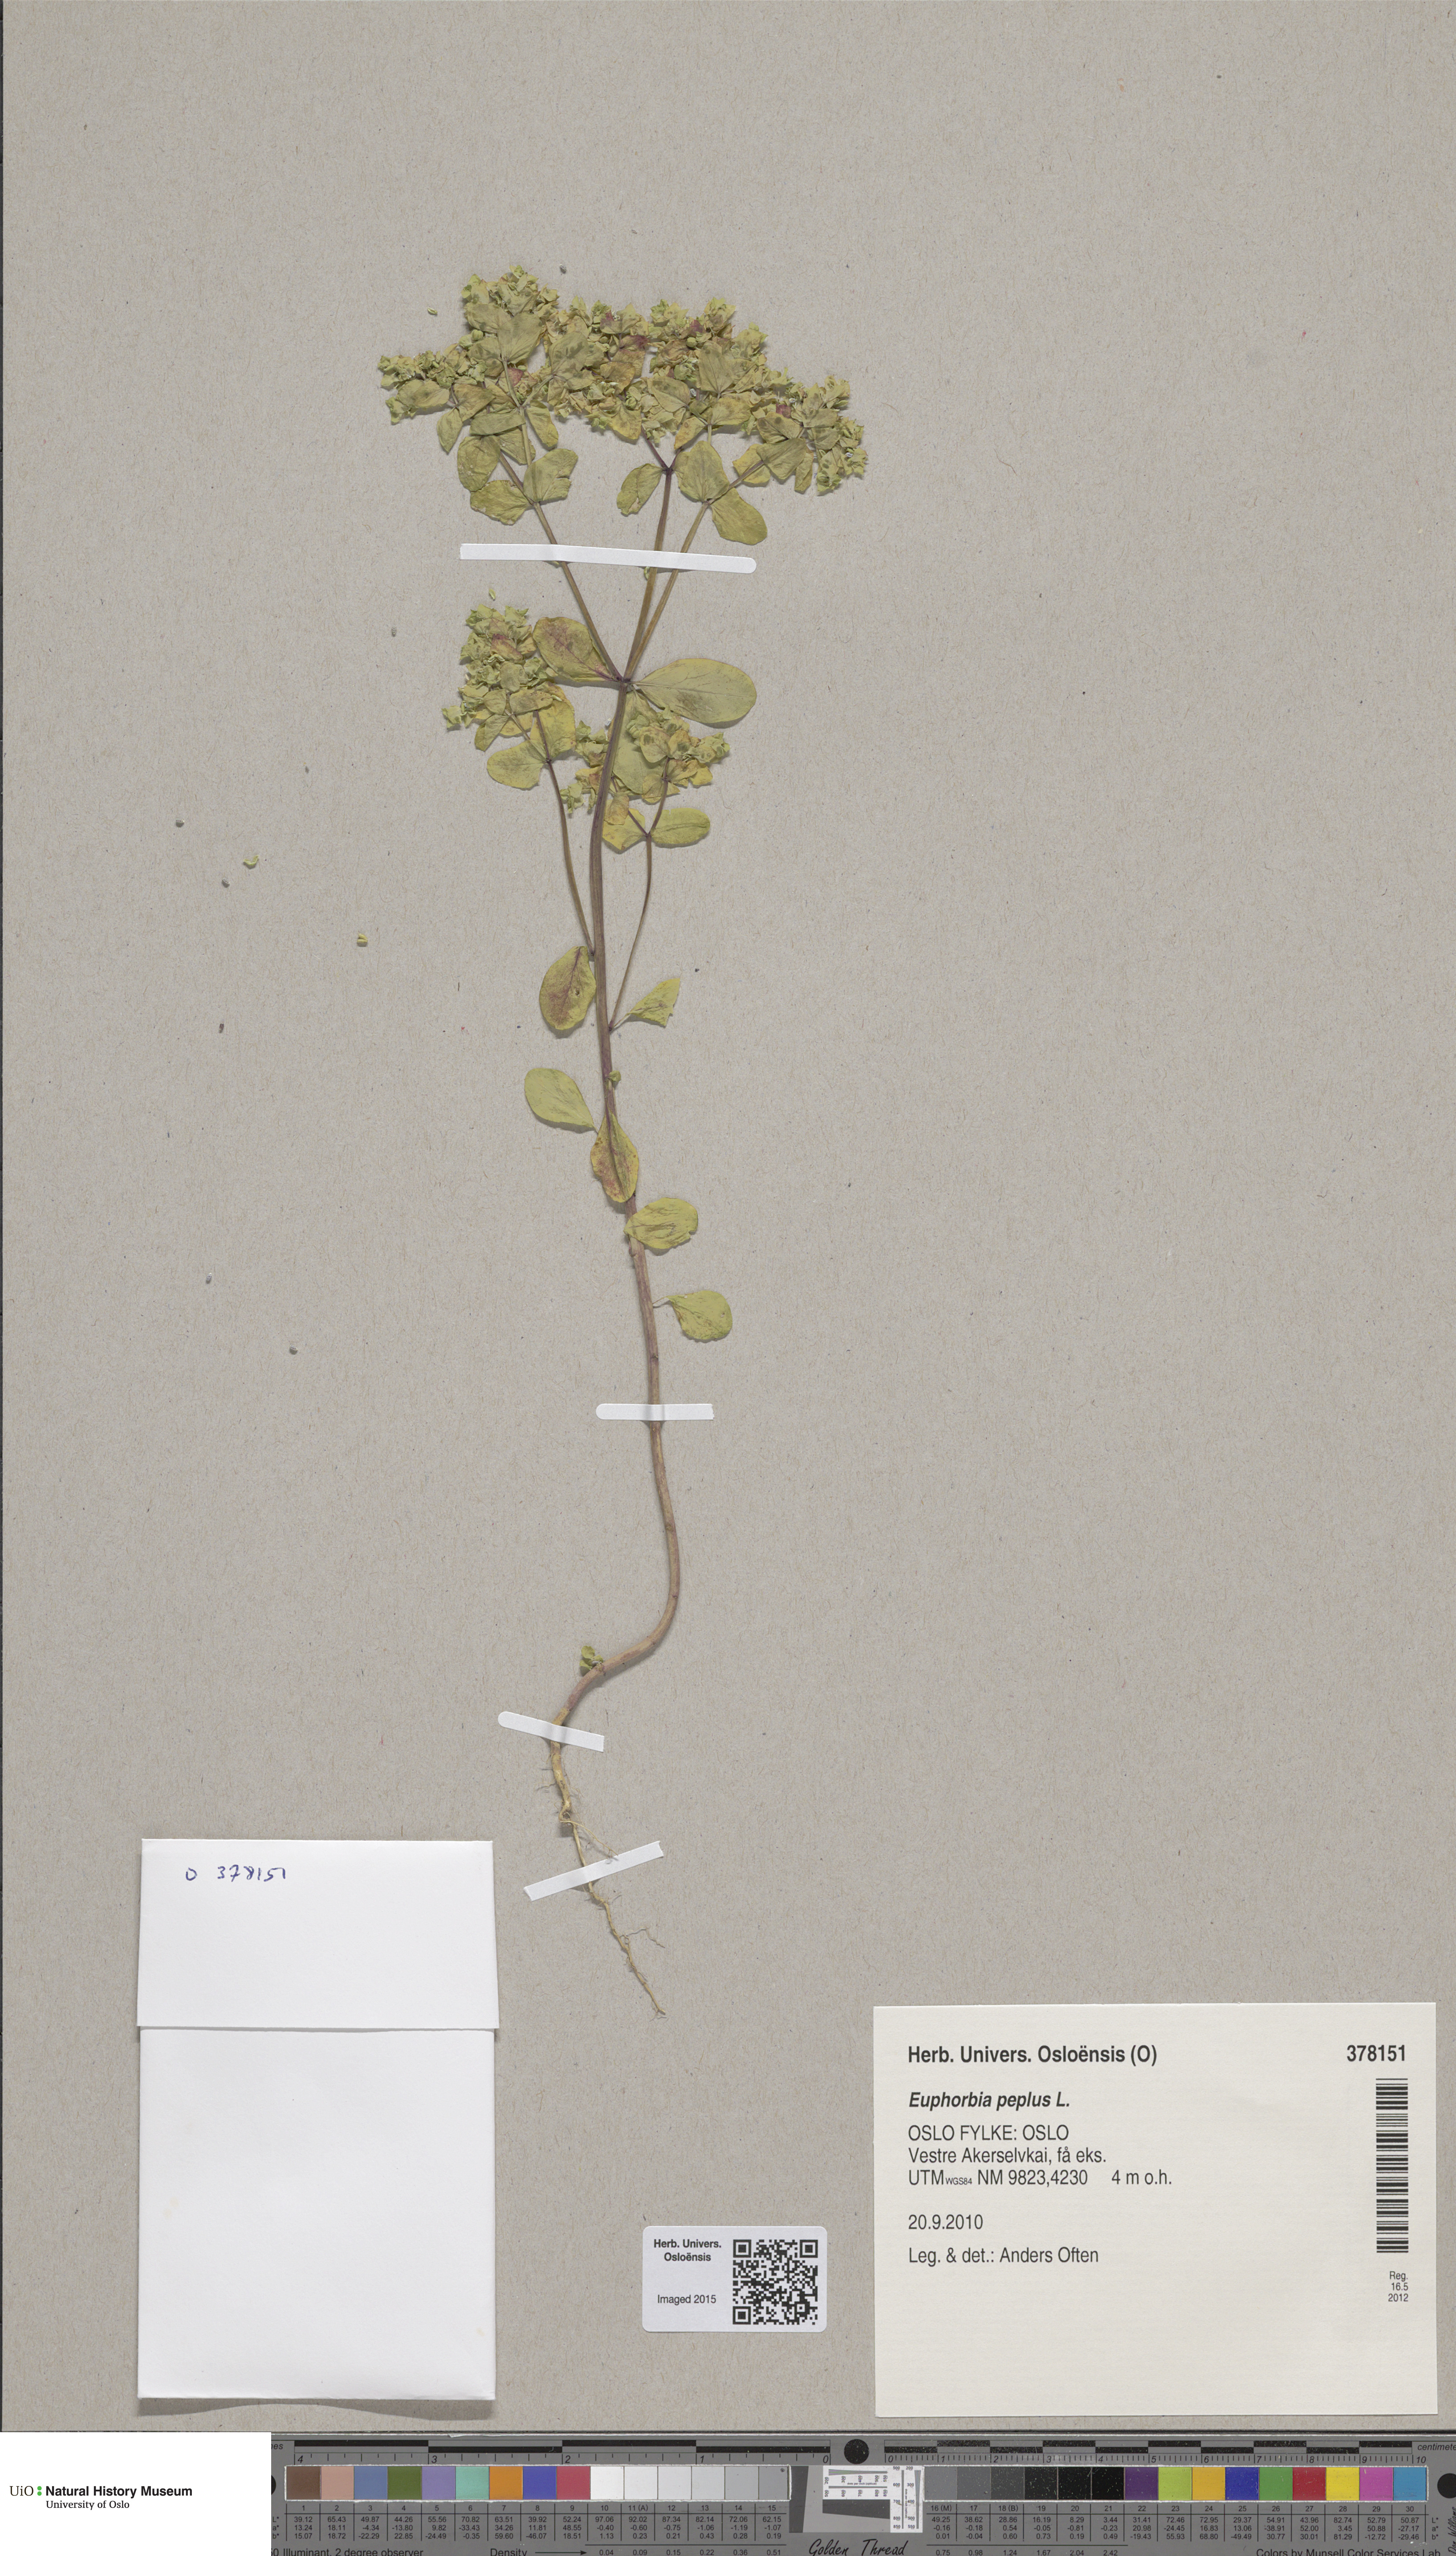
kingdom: Plantae
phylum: Tracheophyta
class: Magnoliopsida
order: Malpighiales
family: Euphorbiaceae
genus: Euphorbia
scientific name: Euphorbia peplus
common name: Petty spurge
